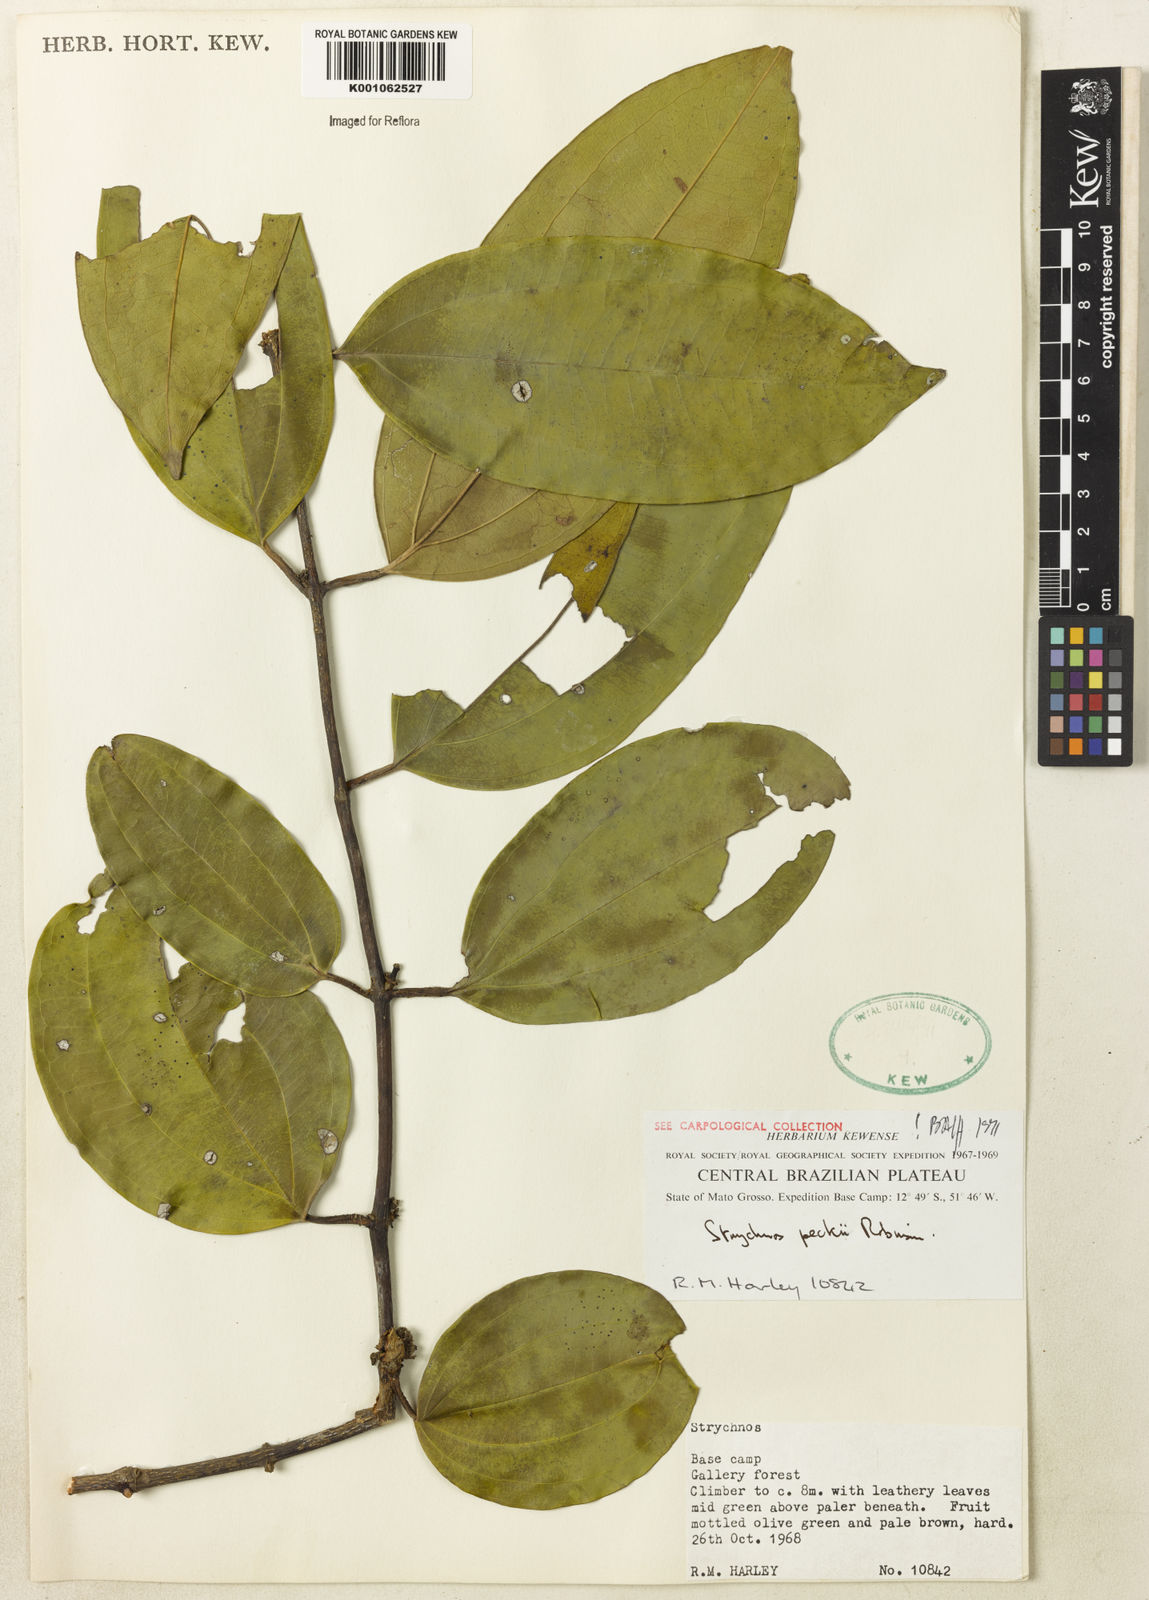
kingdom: Plantae
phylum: Tracheophyta
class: Magnoliopsida
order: Gentianales
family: Loganiaceae
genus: Strychnos
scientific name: Strychnos peckii
